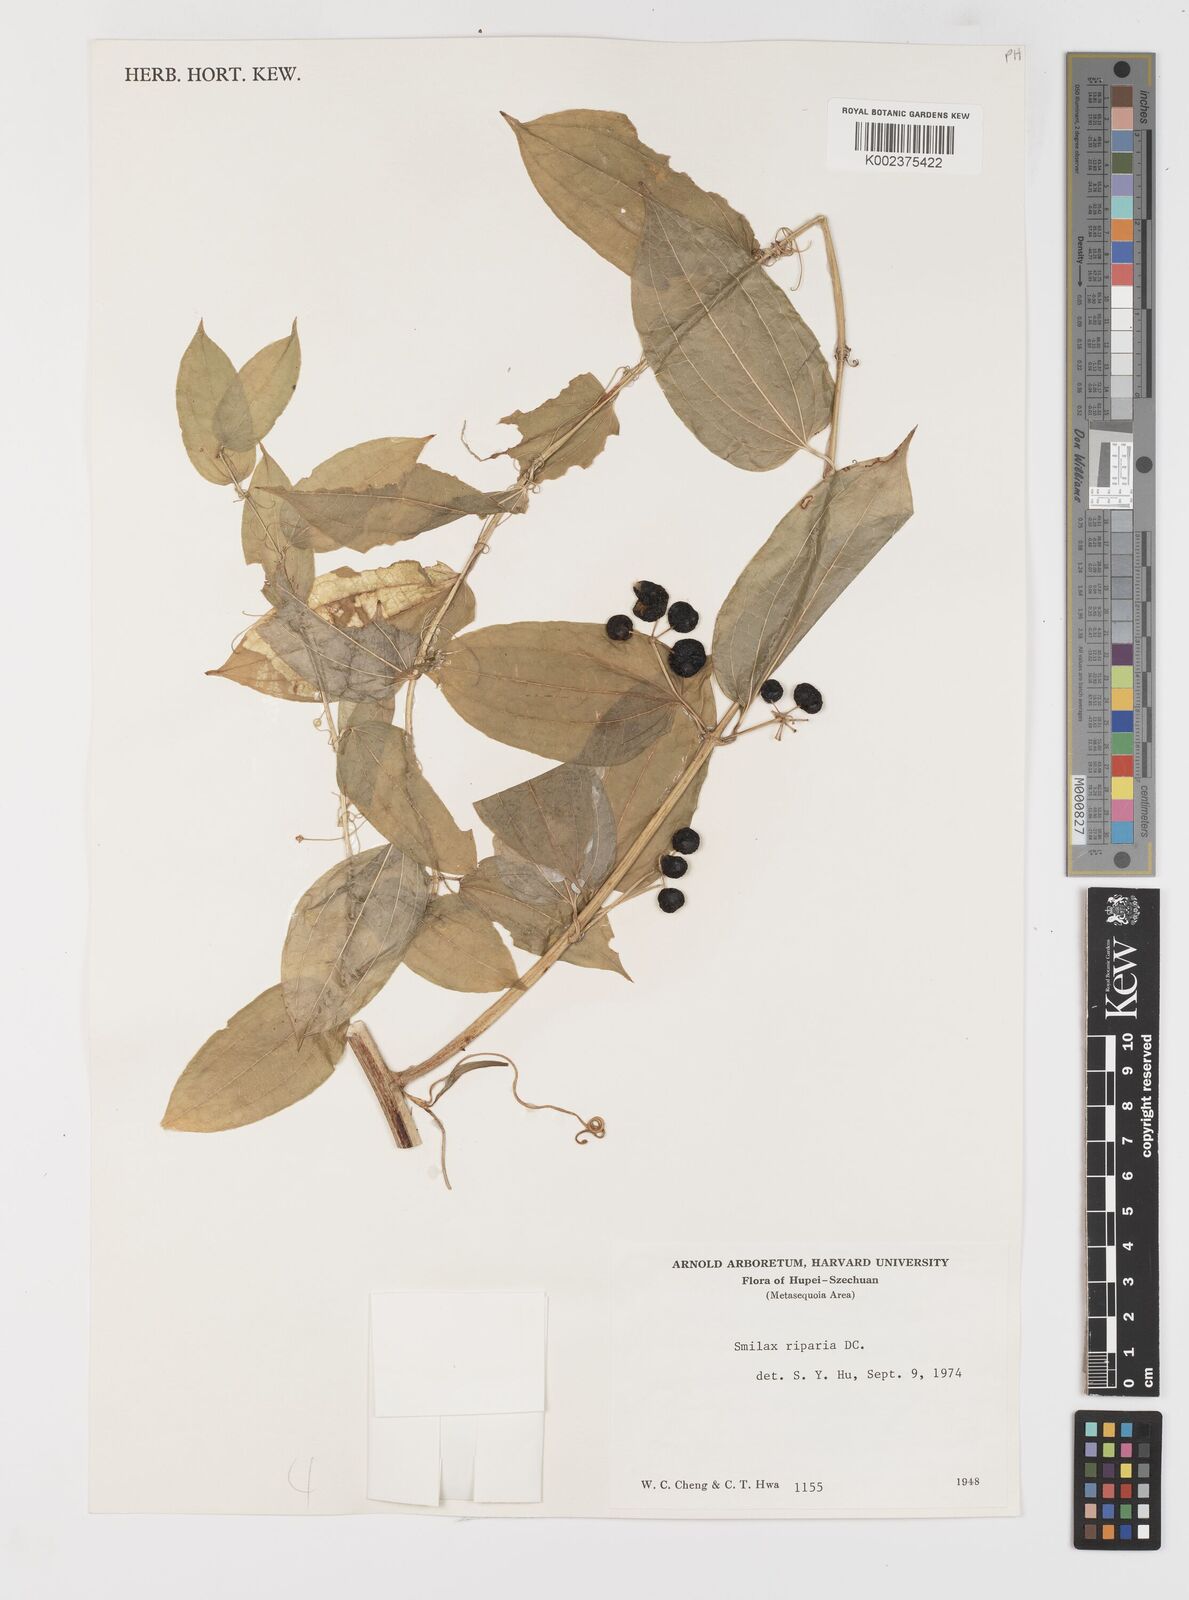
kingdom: Plantae
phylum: Tracheophyta
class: Liliopsida
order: Liliales
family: Smilacaceae
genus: Smilax
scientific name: Smilax riparia
